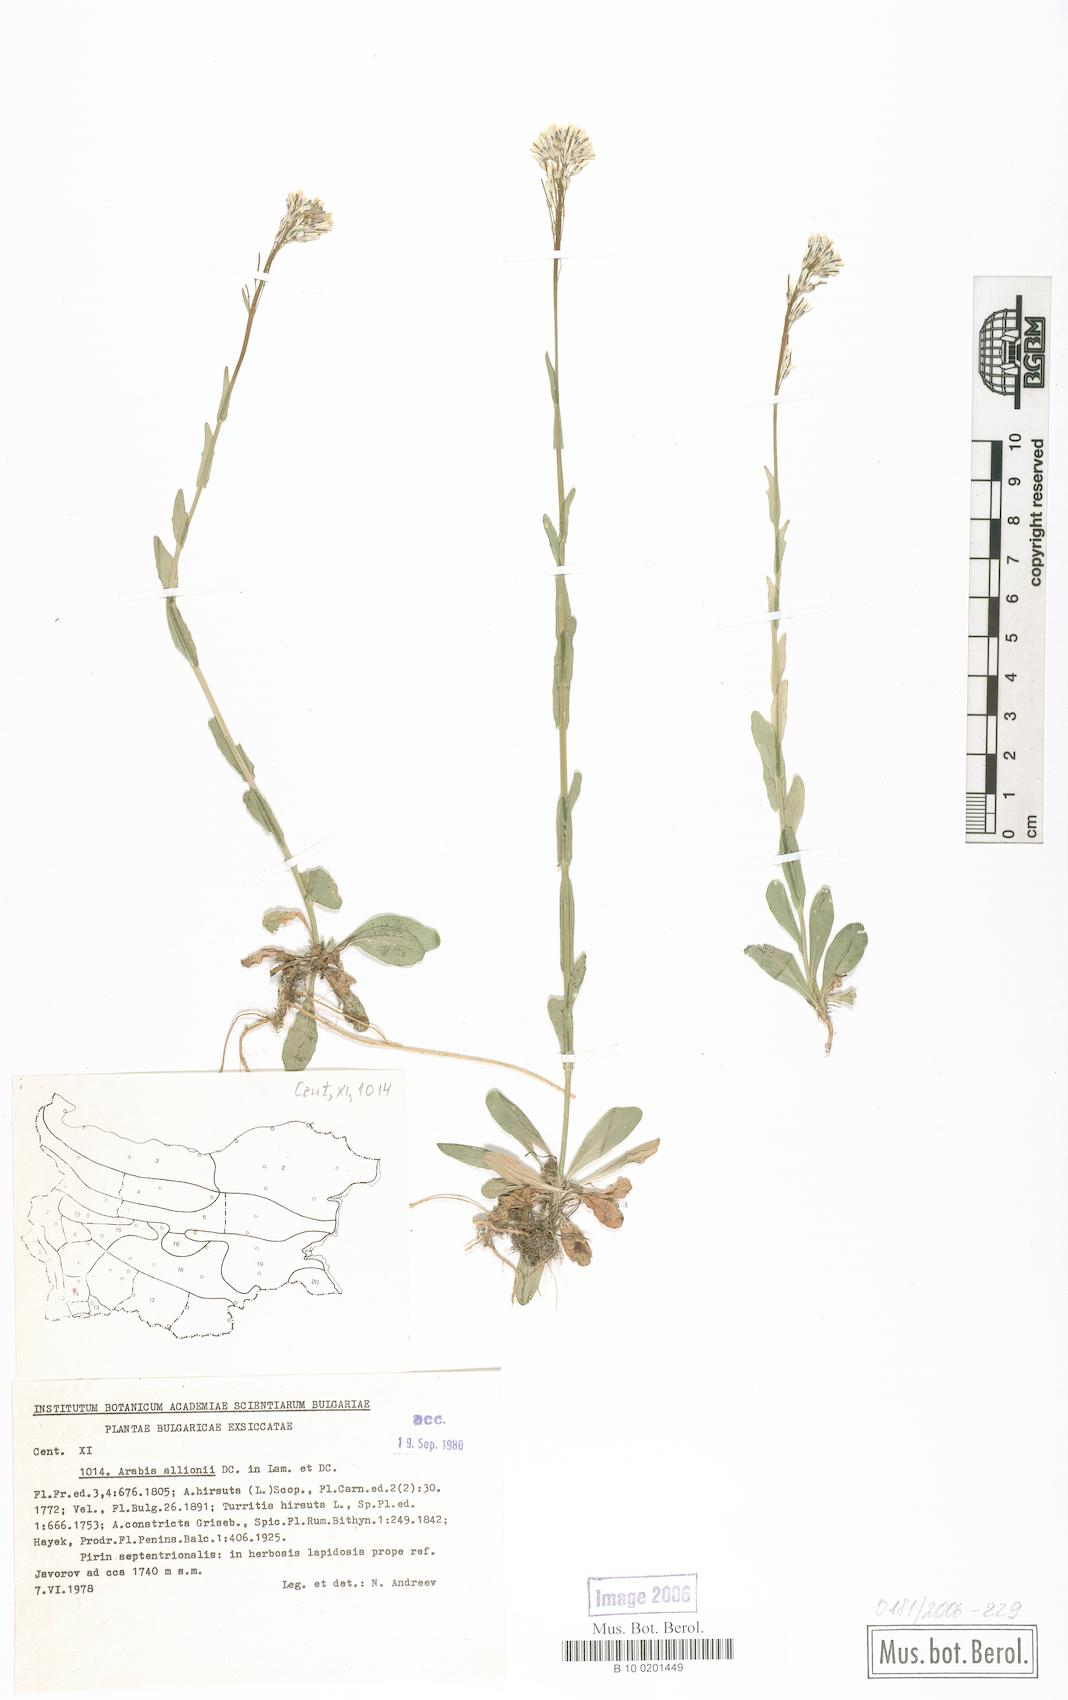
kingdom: Plantae
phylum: Tracheophyta
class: Magnoliopsida
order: Brassicales
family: Brassicaceae
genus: Arabis
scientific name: Arabis allionii
